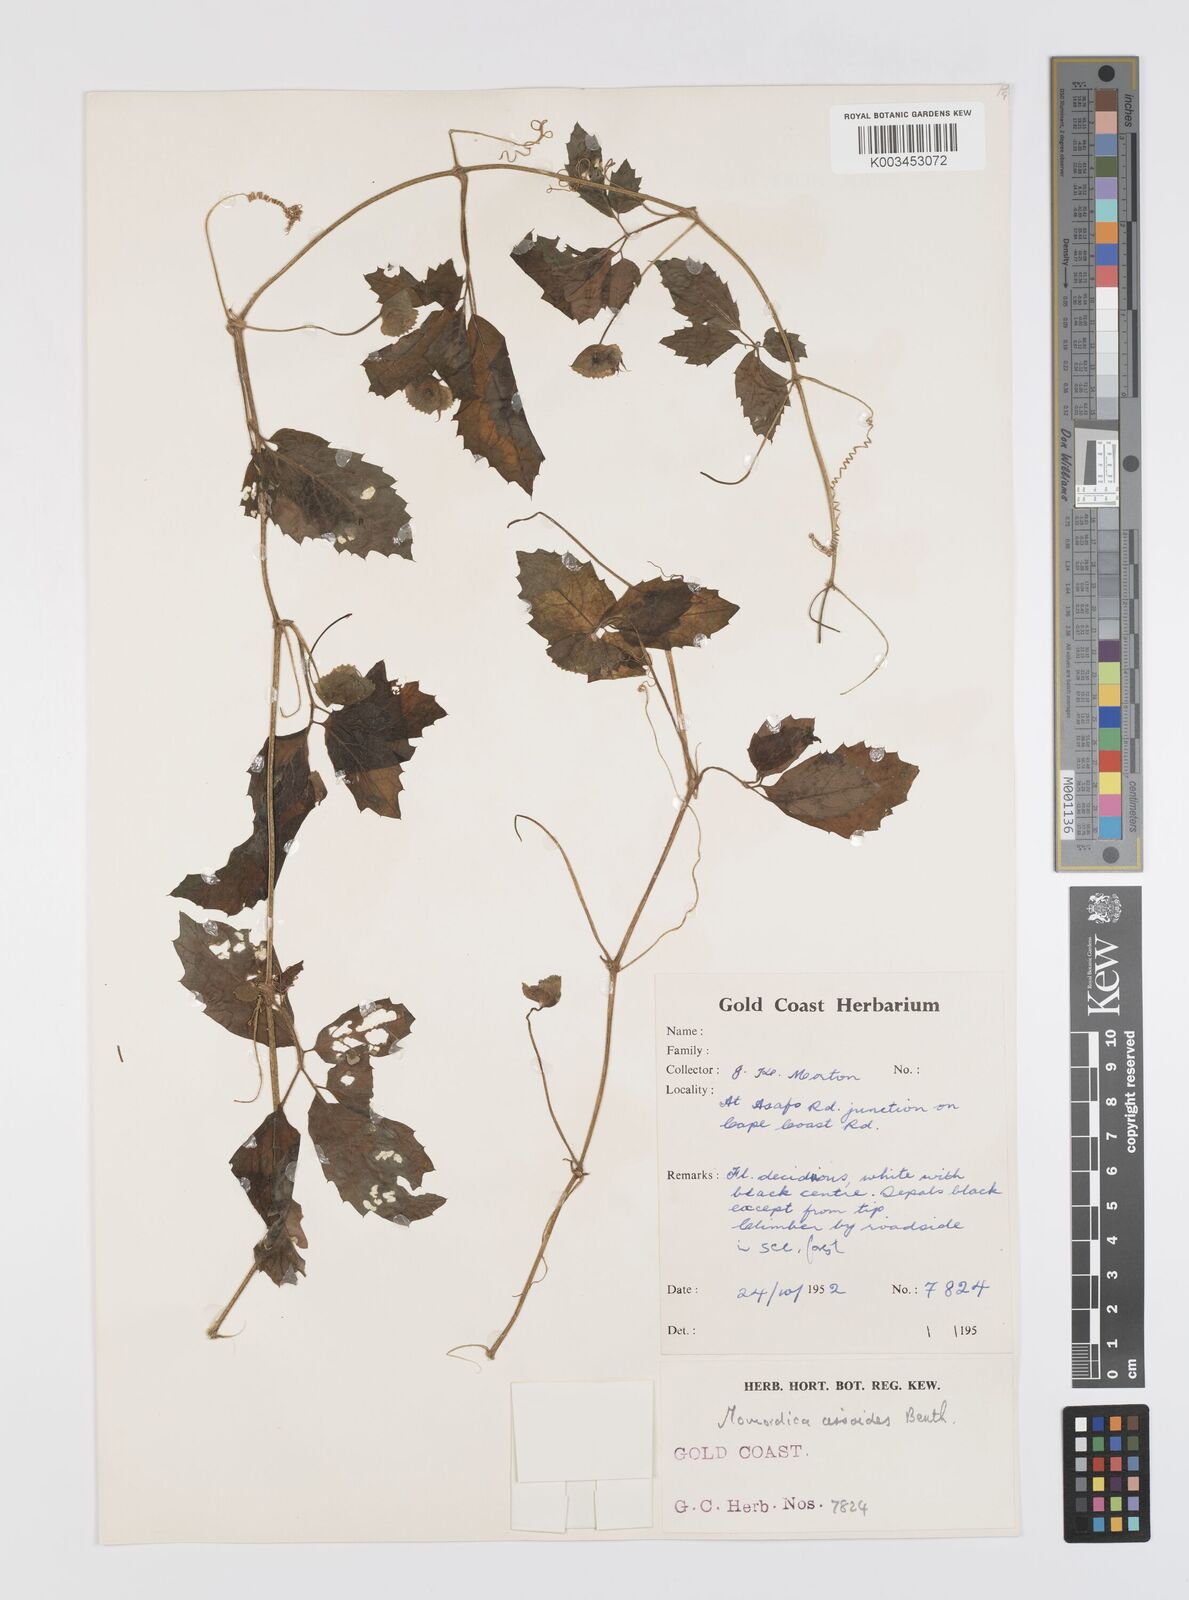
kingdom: Plantae
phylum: Tracheophyta
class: Magnoliopsida
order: Cucurbitales
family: Cucurbitaceae
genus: Momordica
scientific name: Momordica cissoides
